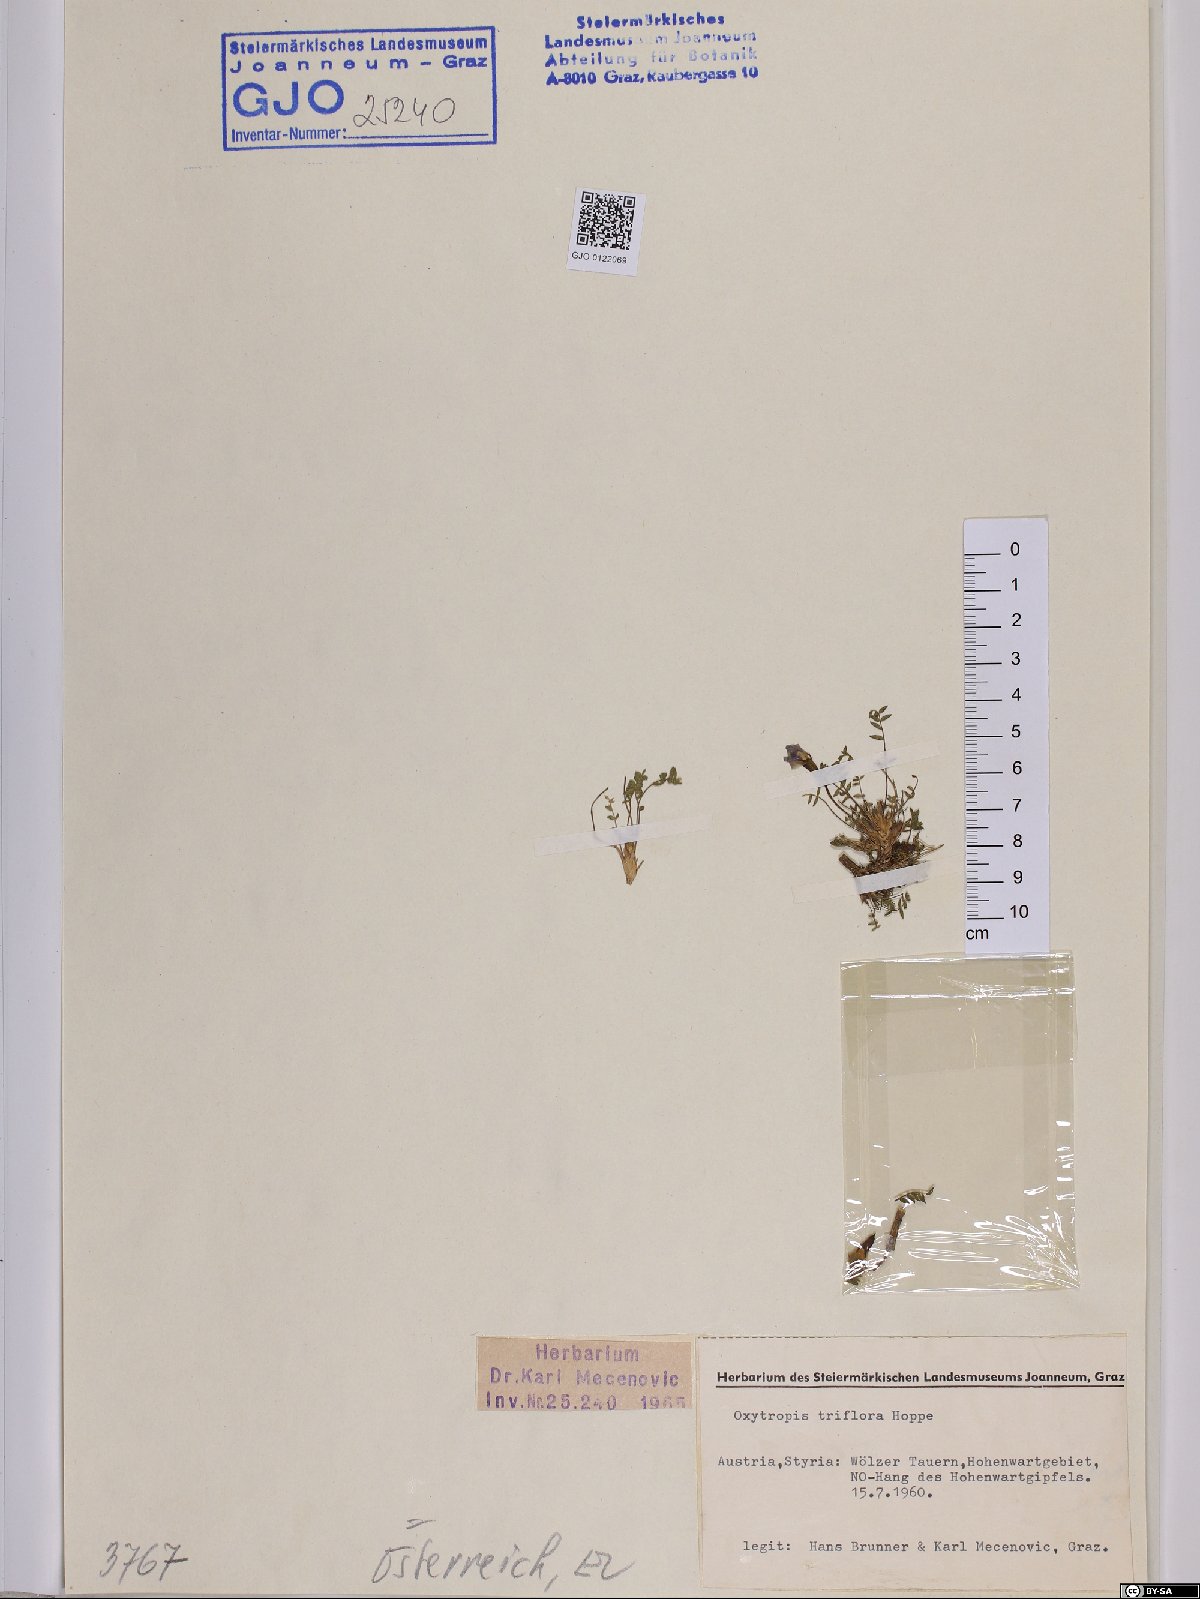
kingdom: Plantae
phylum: Tracheophyta
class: Magnoliopsida
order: Fabales
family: Fabaceae
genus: Oxytropis
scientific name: Oxytropis triflora
